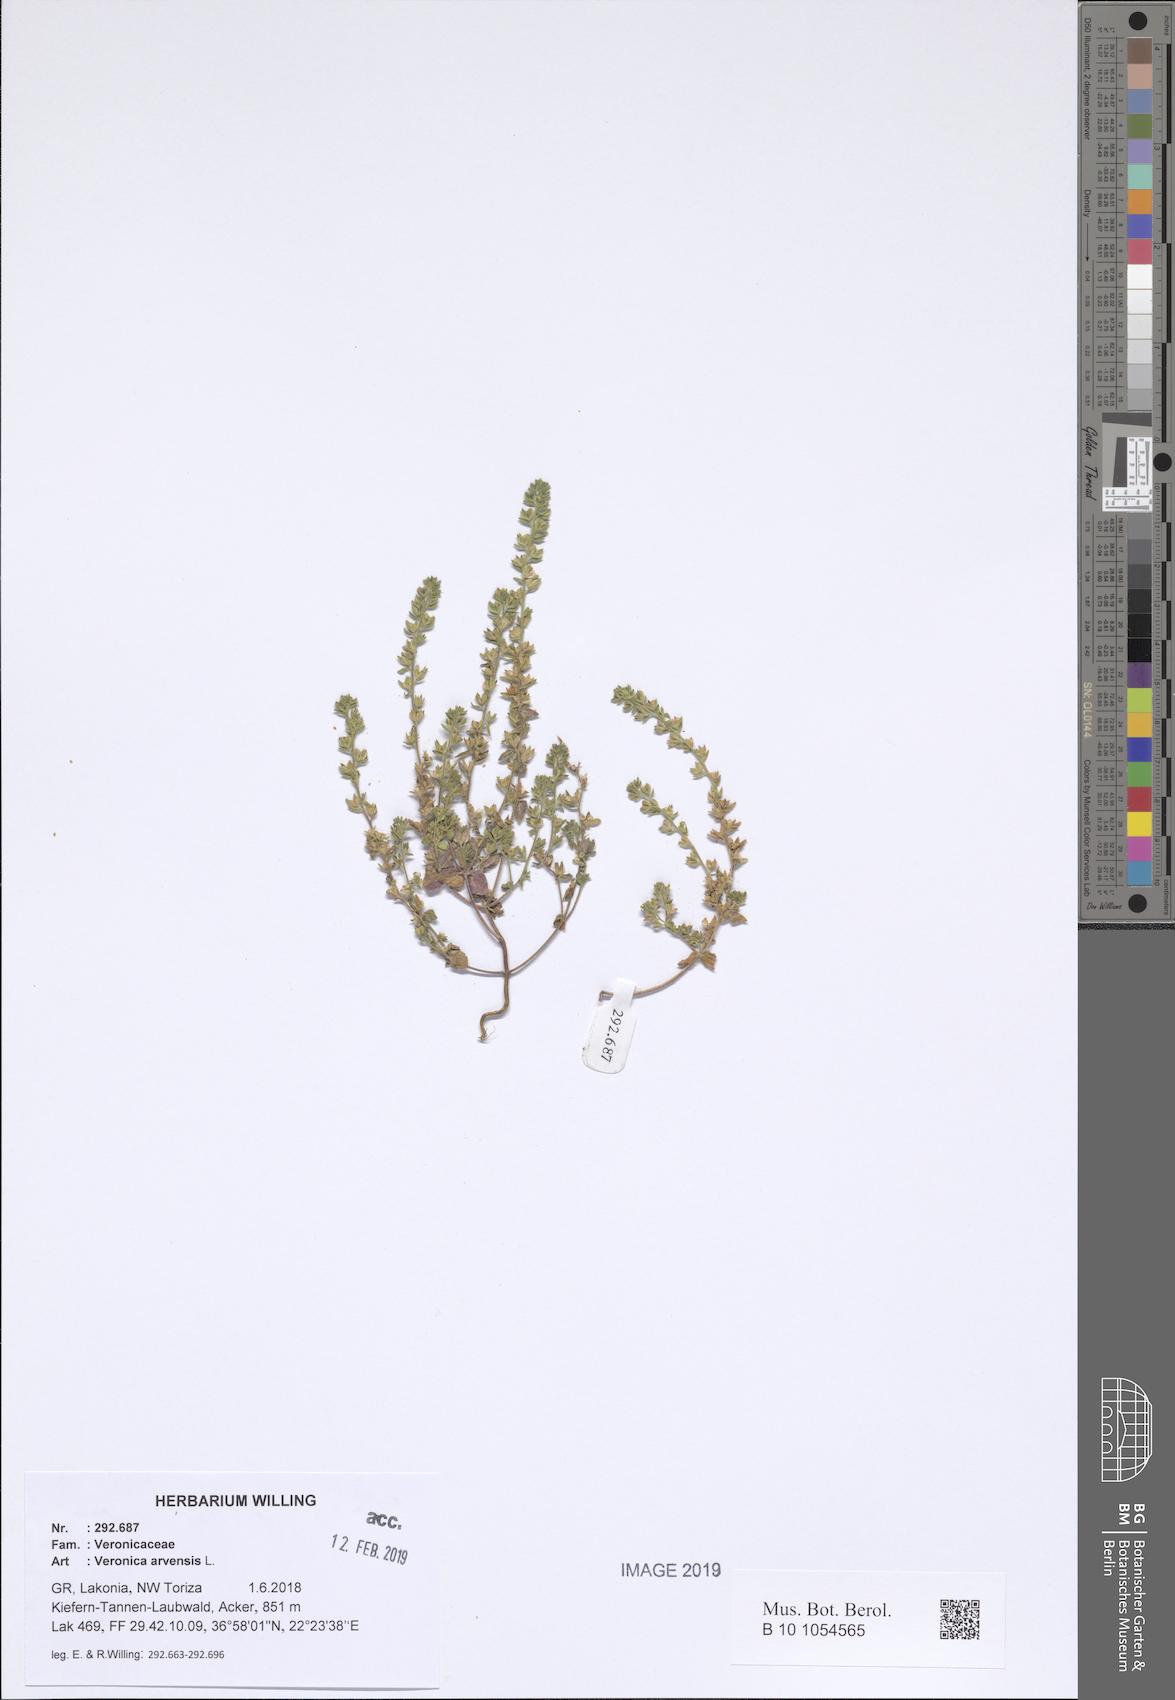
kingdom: Plantae
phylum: Tracheophyta
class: Magnoliopsida
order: Lamiales
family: Plantaginaceae
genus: Veronica
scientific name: Veronica arvensis
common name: Corn speedwell
